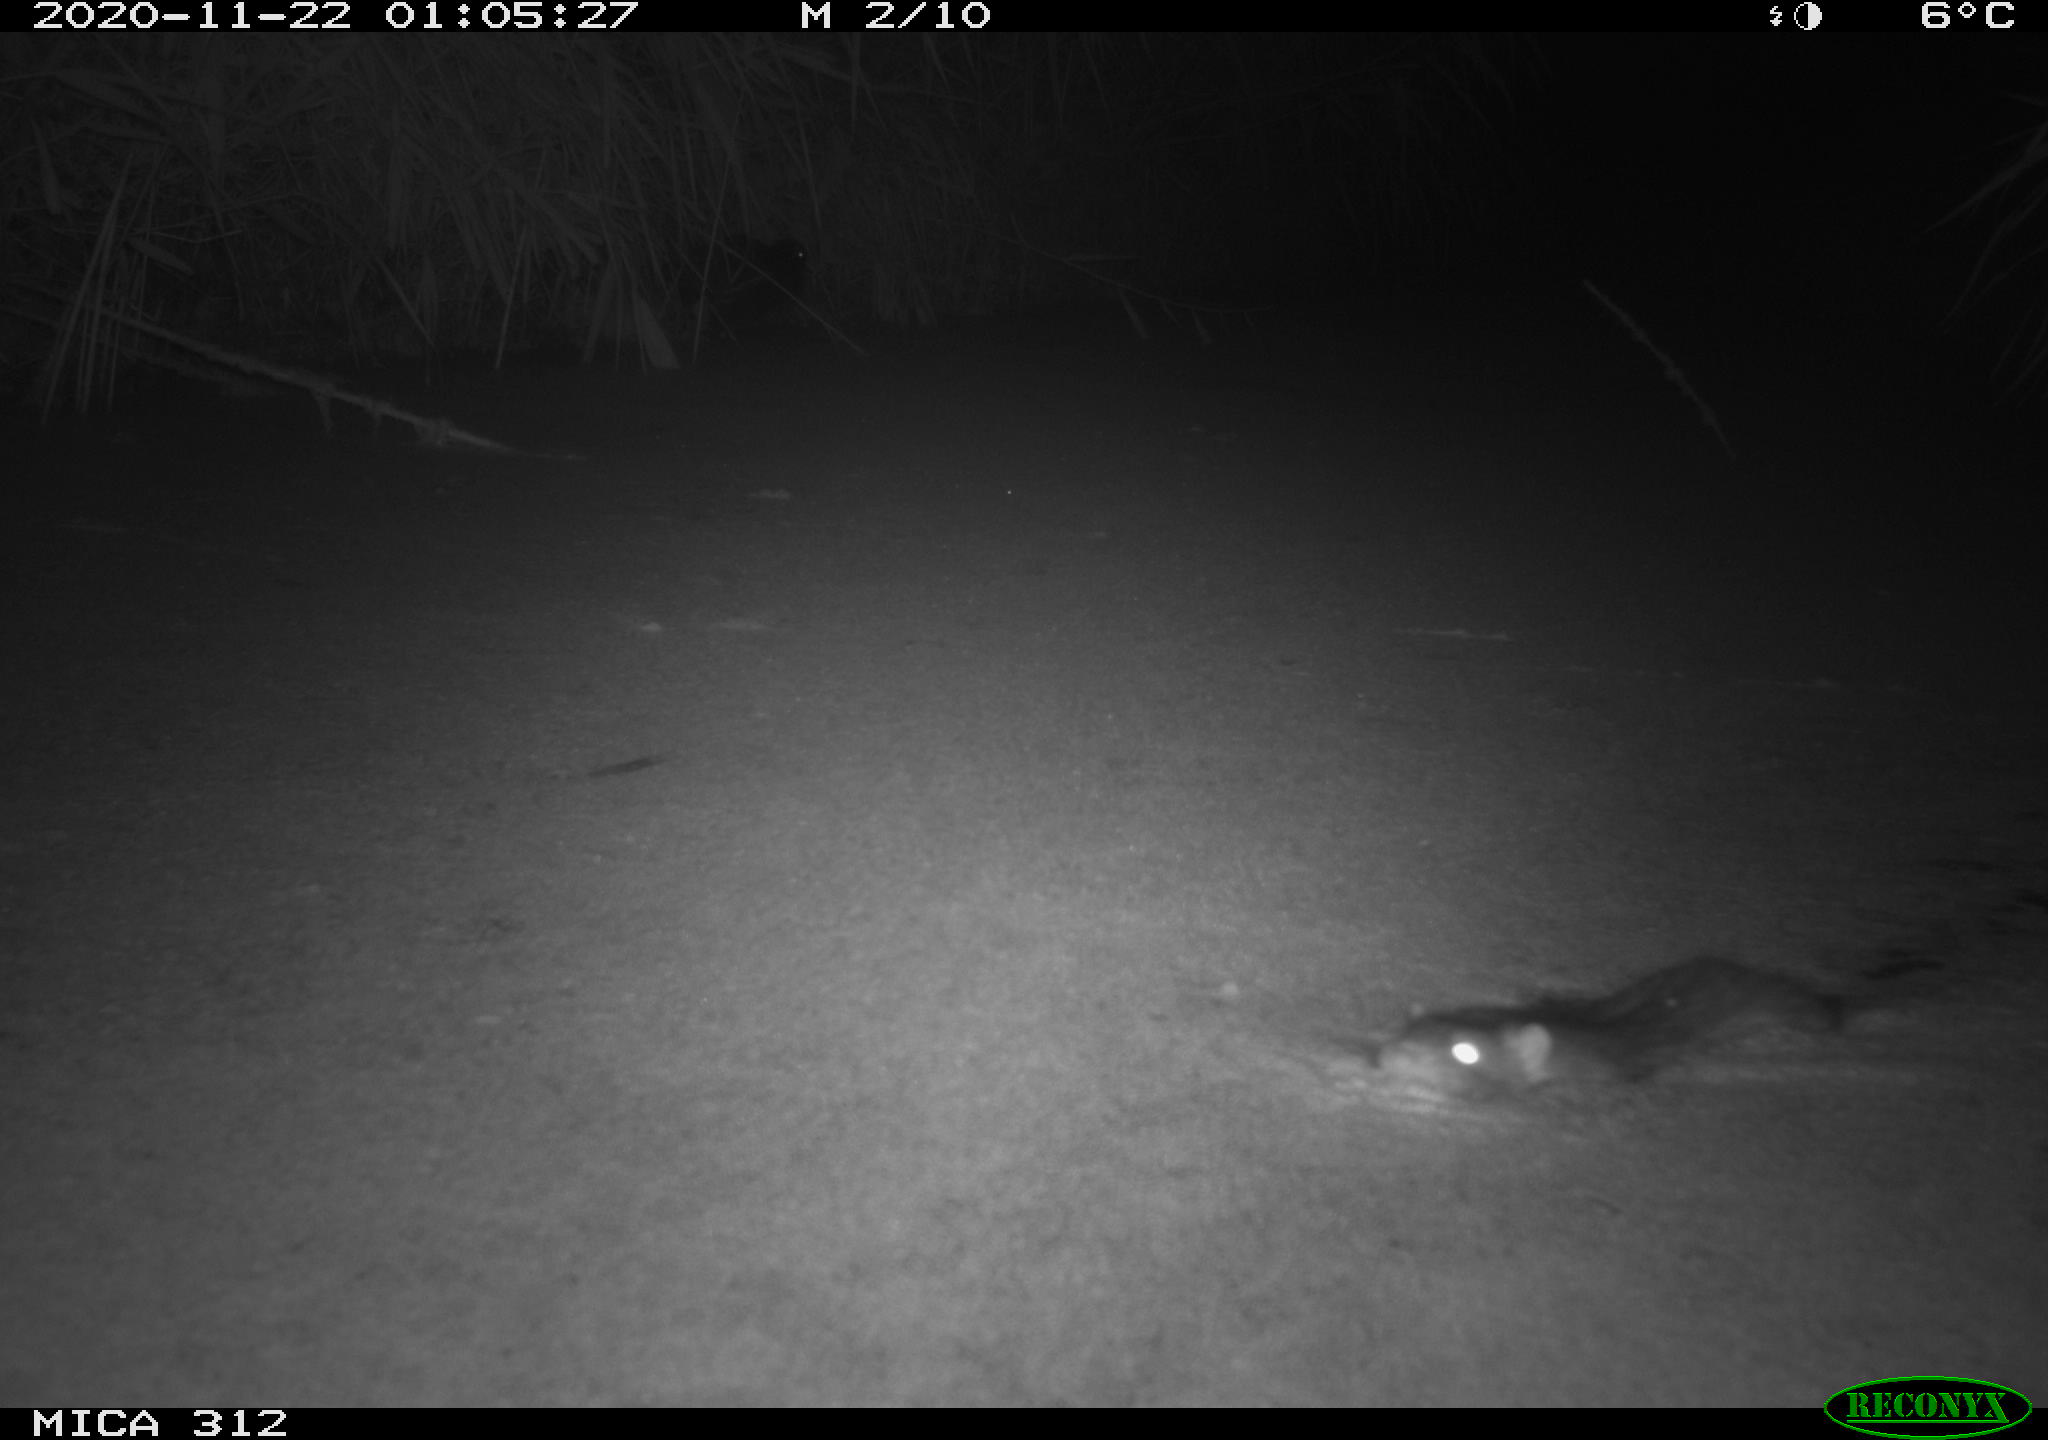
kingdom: Animalia
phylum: Chordata
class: Aves
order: Gruiformes
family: Rallidae
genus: Gallinula
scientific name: Gallinula chloropus
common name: Common moorhen
